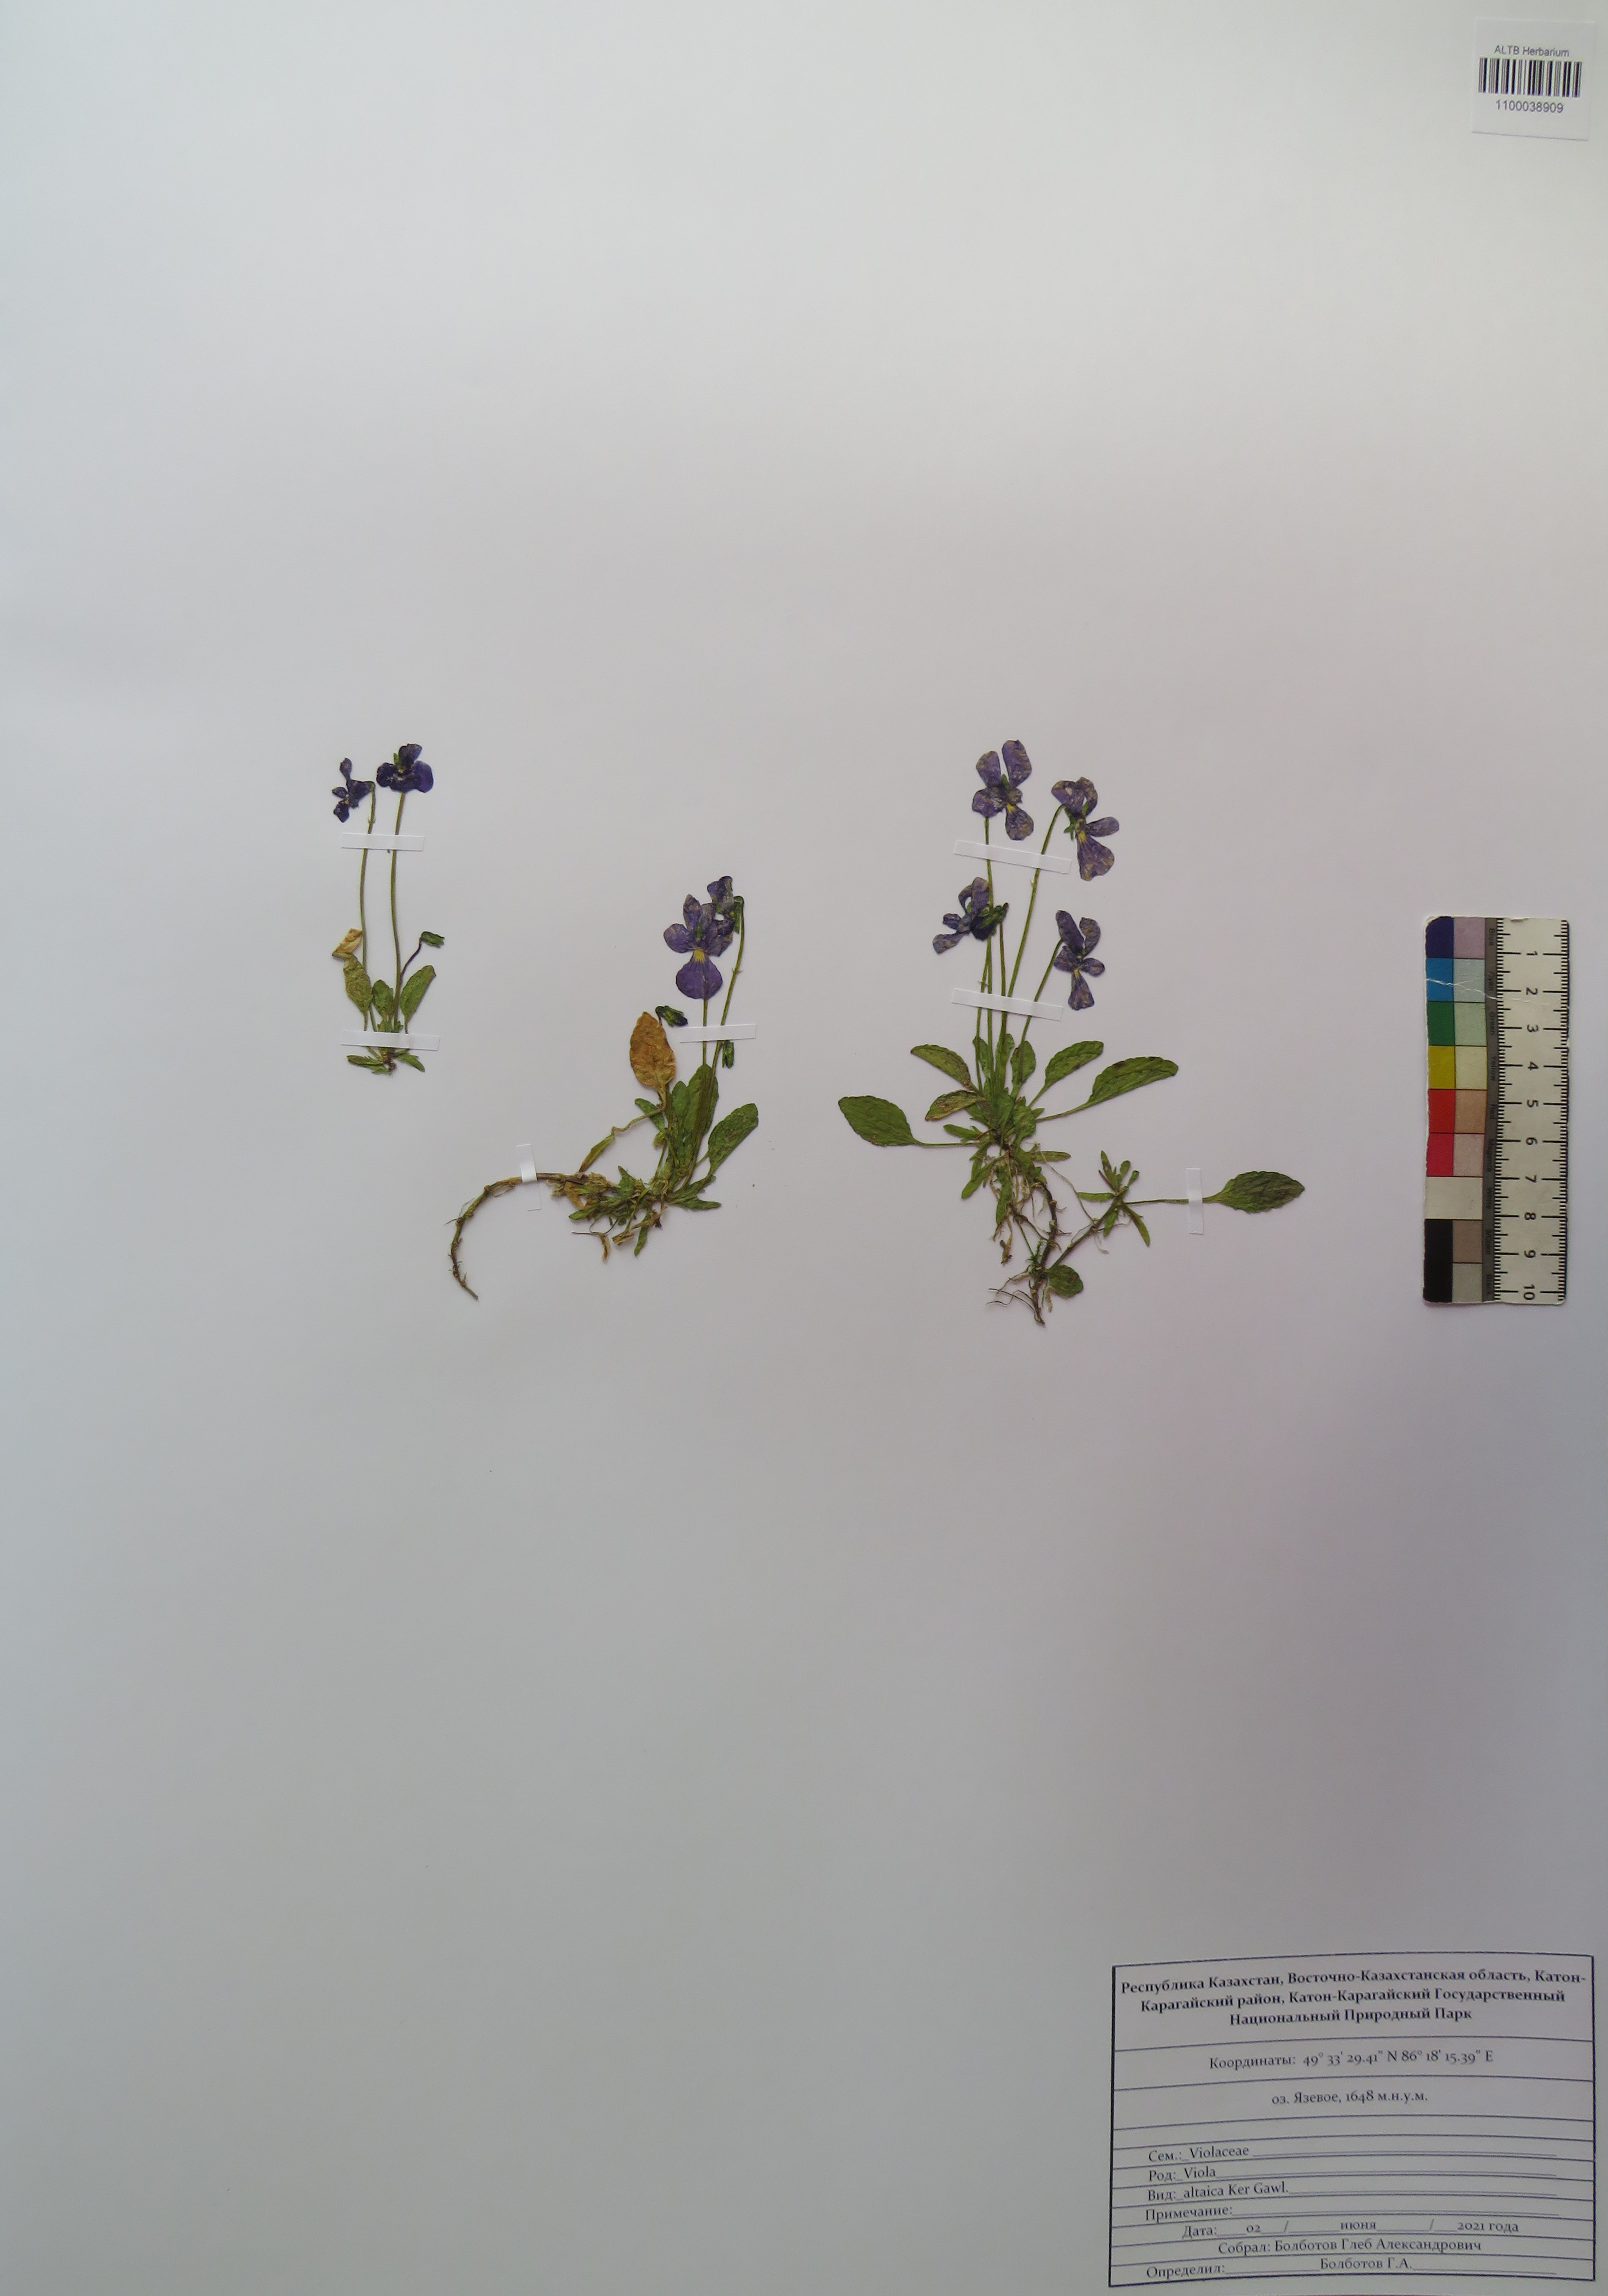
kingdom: Plantae
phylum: Tracheophyta
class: Magnoliopsida
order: Malpighiales
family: Violaceae
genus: Viola
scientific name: Viola altaica
